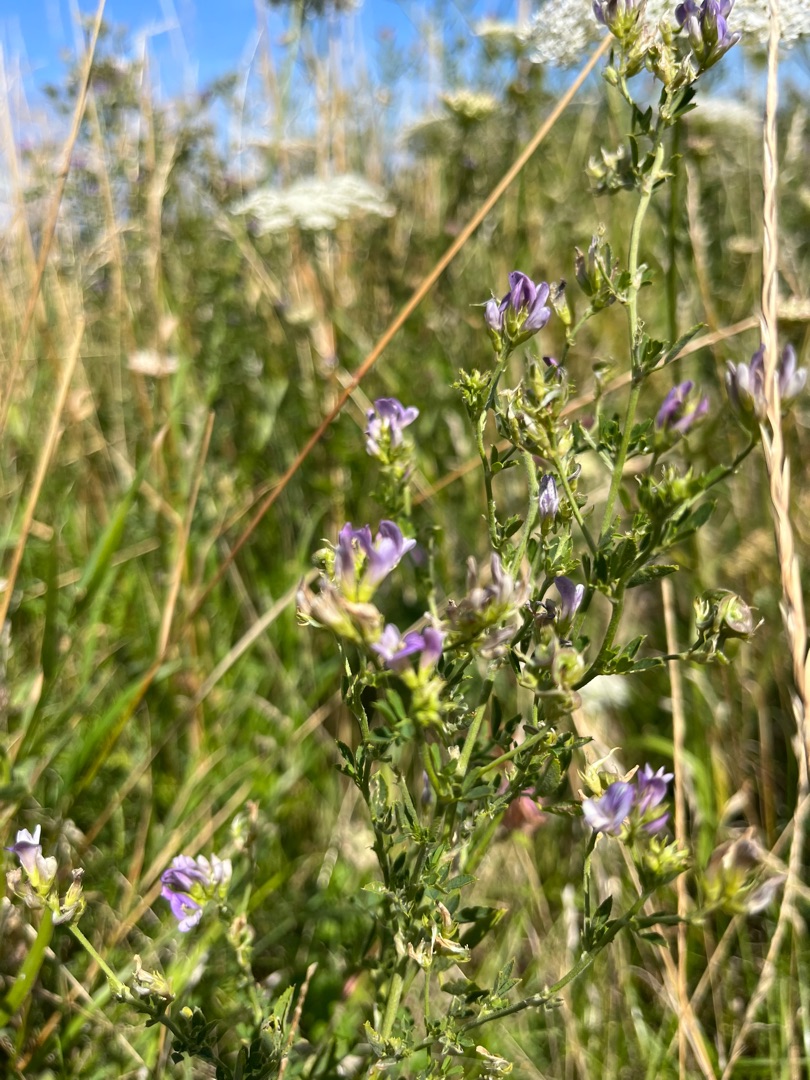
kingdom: Plantae
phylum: Tracheophyta
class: Magnoliopsida
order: Fabales
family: Fabaceae
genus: Medicago
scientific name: Medicago sativa
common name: Lucerne
